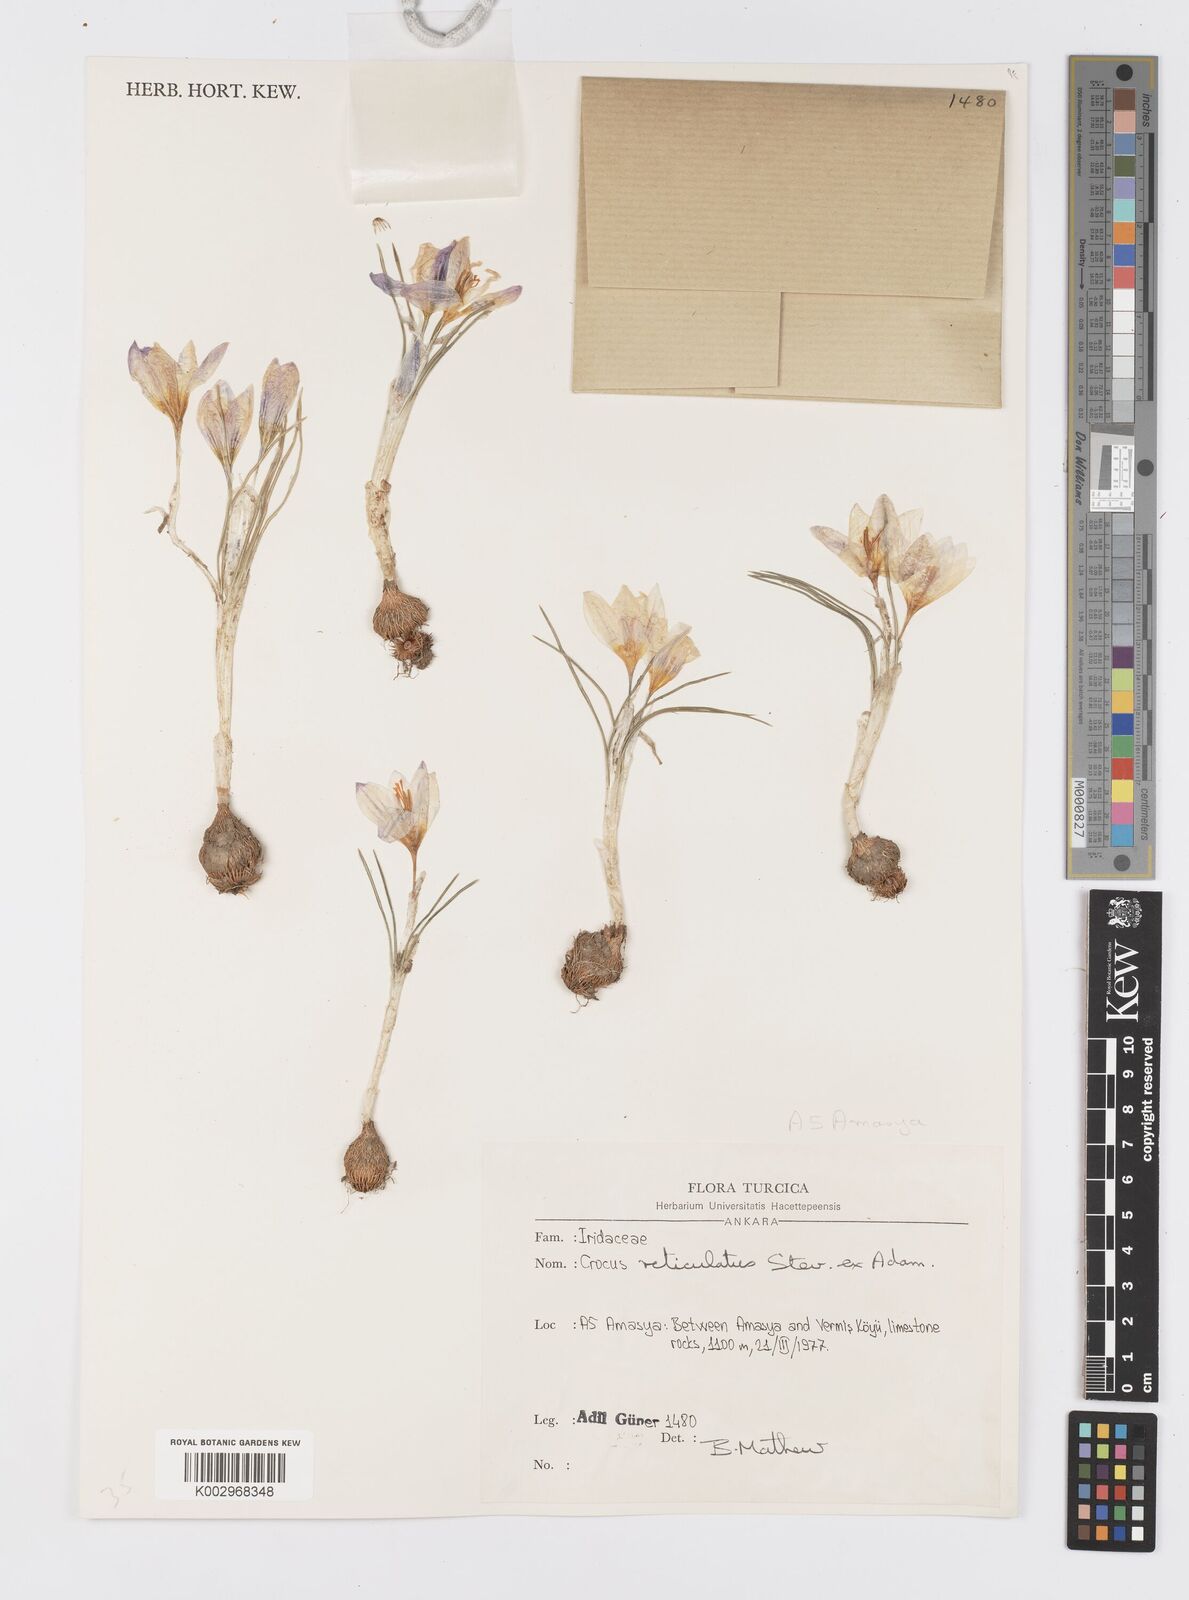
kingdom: Plantae
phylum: Tracheophyta
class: Liliopsida
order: Asparagales
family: Iridaceae
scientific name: Iridaceae
